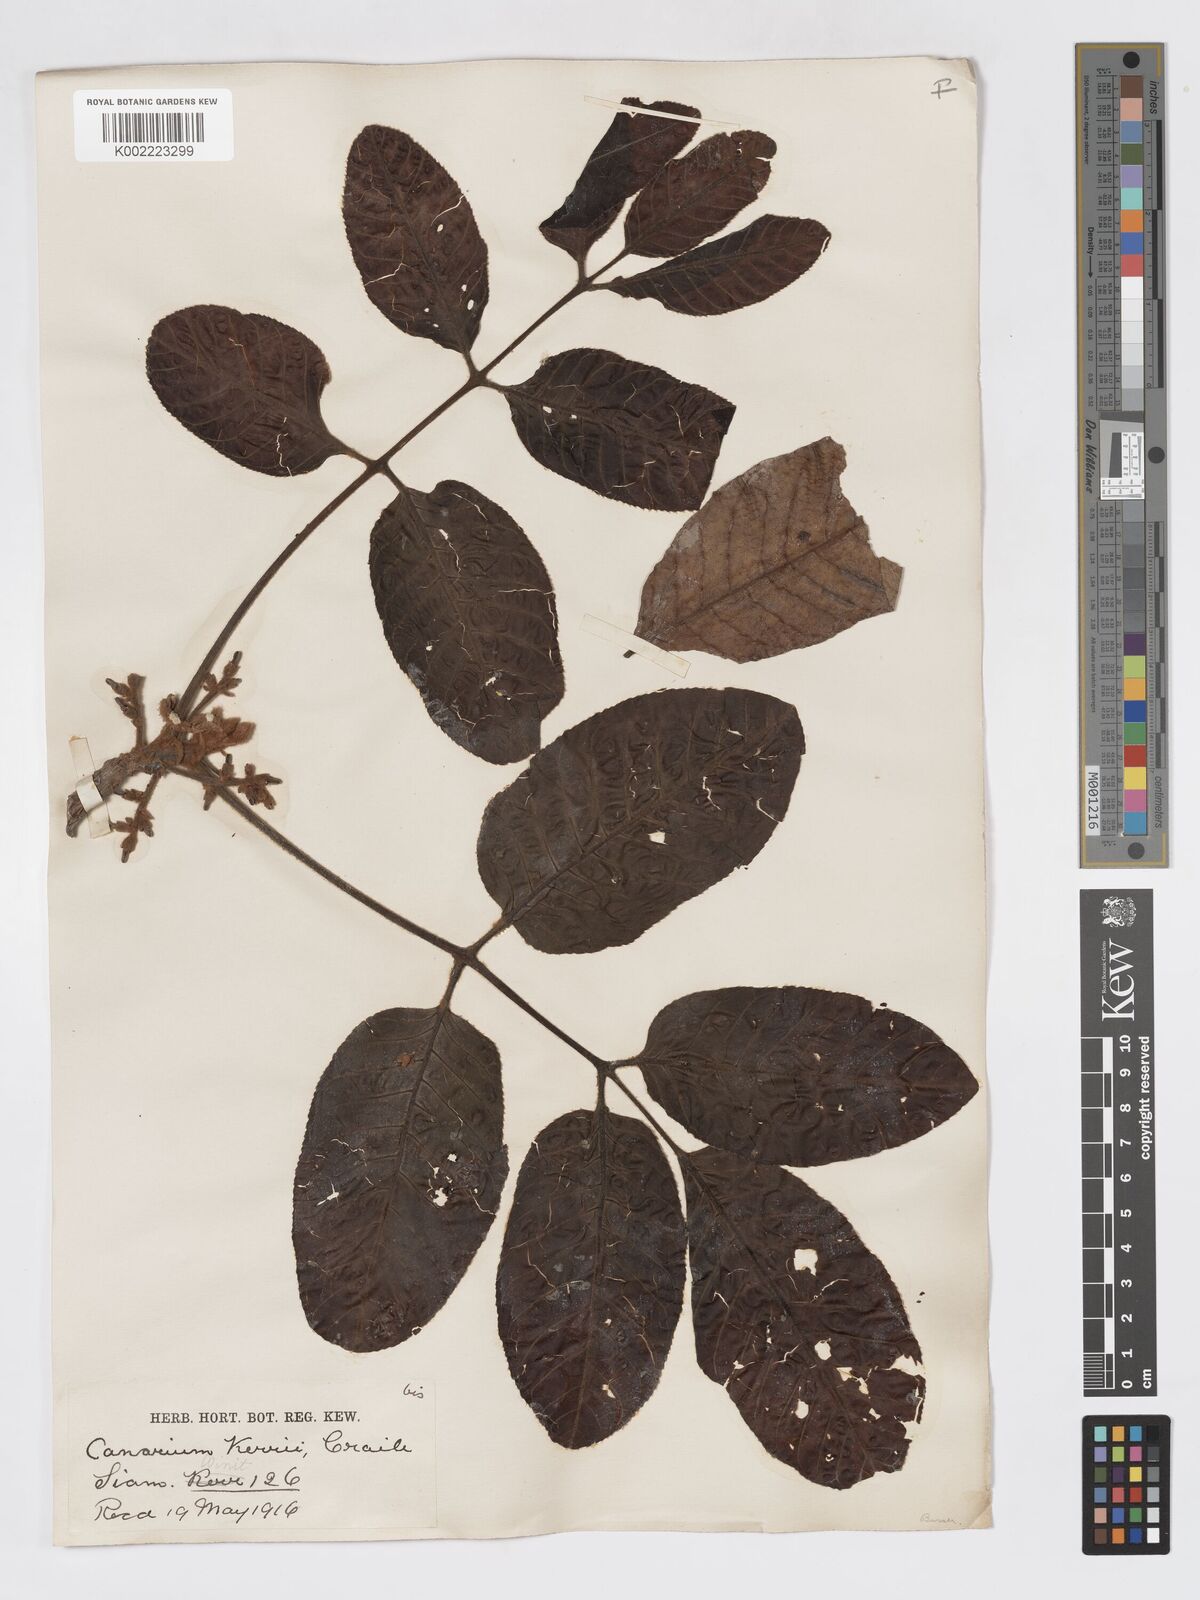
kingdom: Plantae
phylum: Tracheophyta
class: Magnoliopsida
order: Sapindales
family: Burseraceae
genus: Canarium
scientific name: Canarium subulatum
